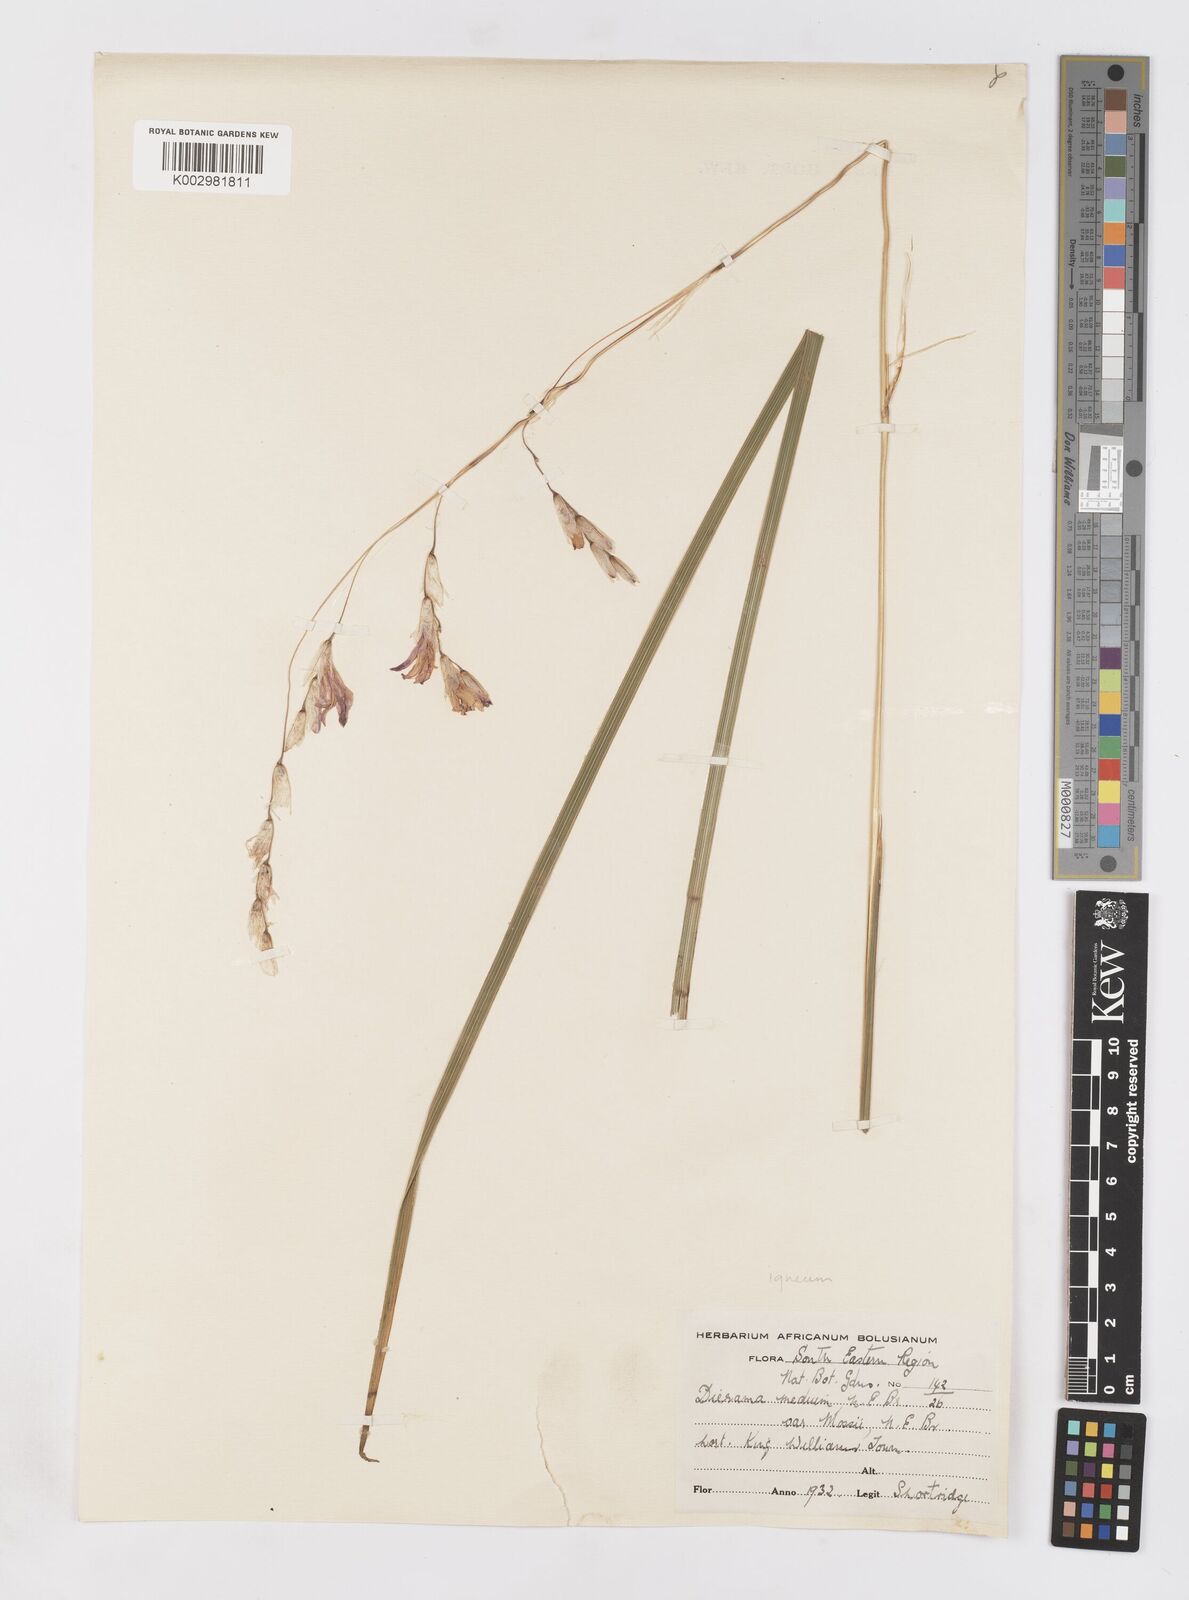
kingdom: Plantae
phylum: Tracheophyta
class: Liliopsida
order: Asparagales
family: Iridaceae
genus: Dierama
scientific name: Dierama igneum
